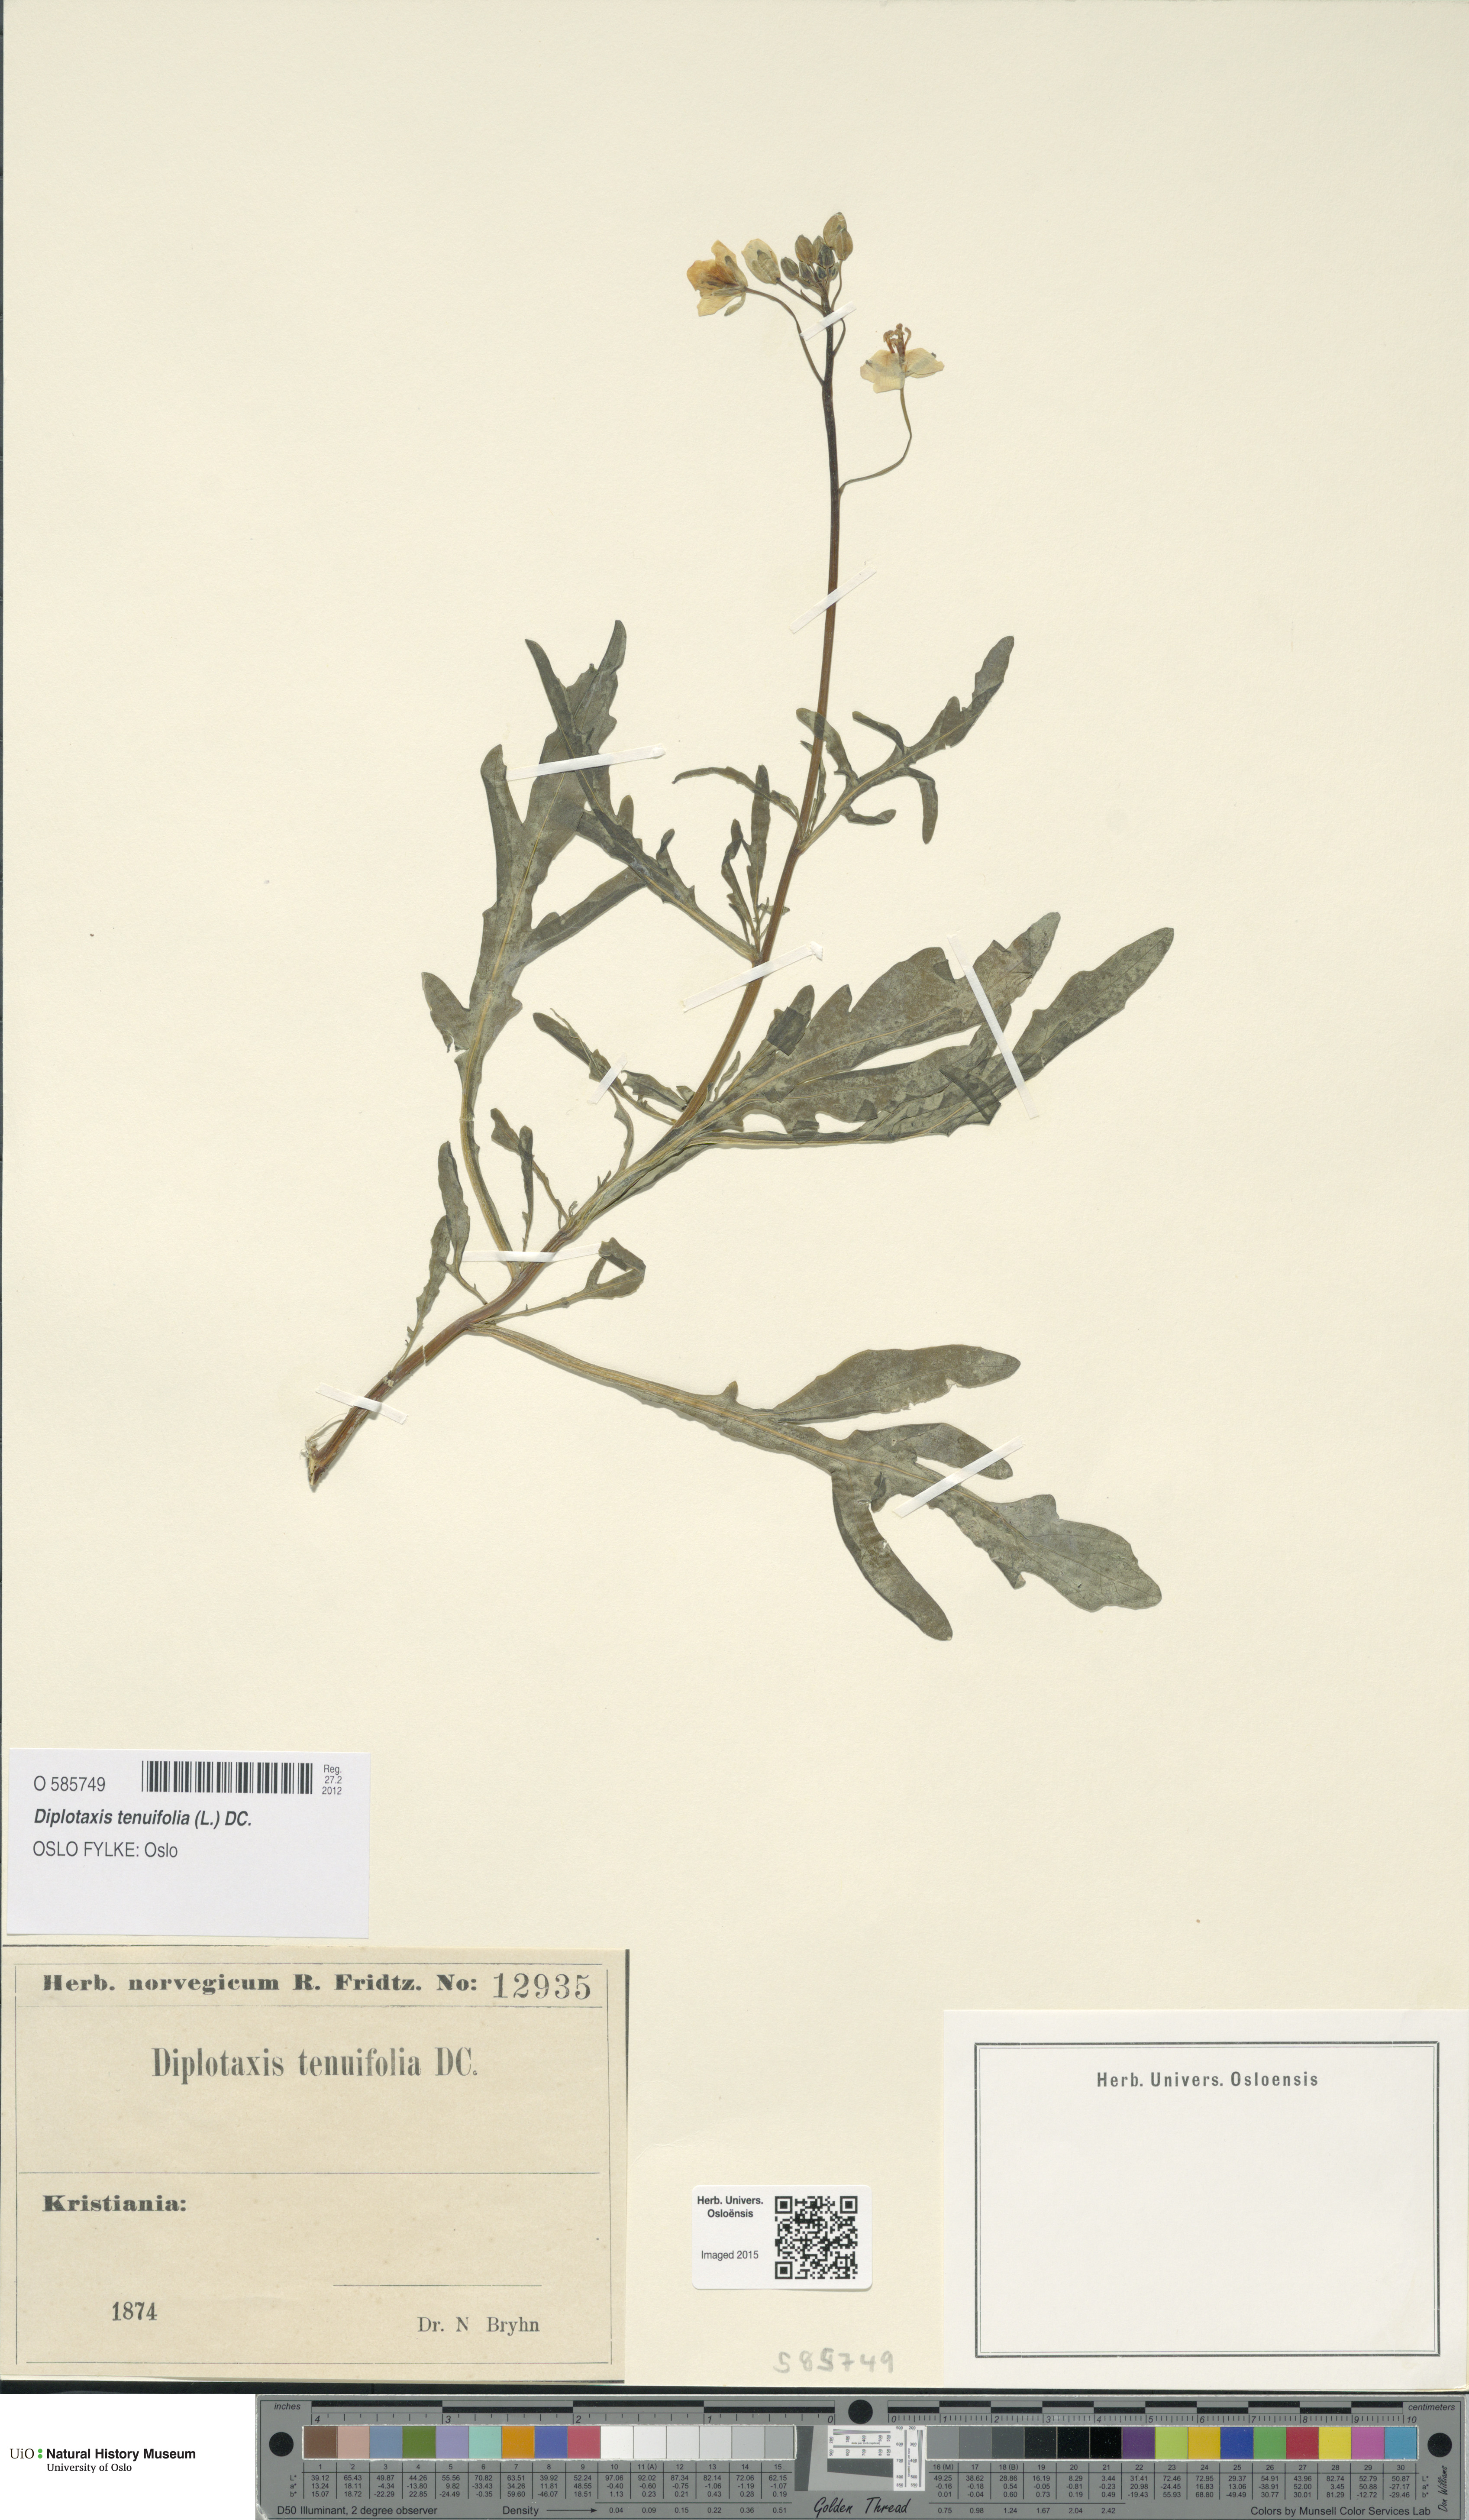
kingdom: Plantae
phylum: Tracheophyta
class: Magnoliopsida
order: Brassicales
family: Brassicaceae
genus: Diplotaxis
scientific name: Diplotaxis tenuifolia
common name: Perennial wall-rocket
